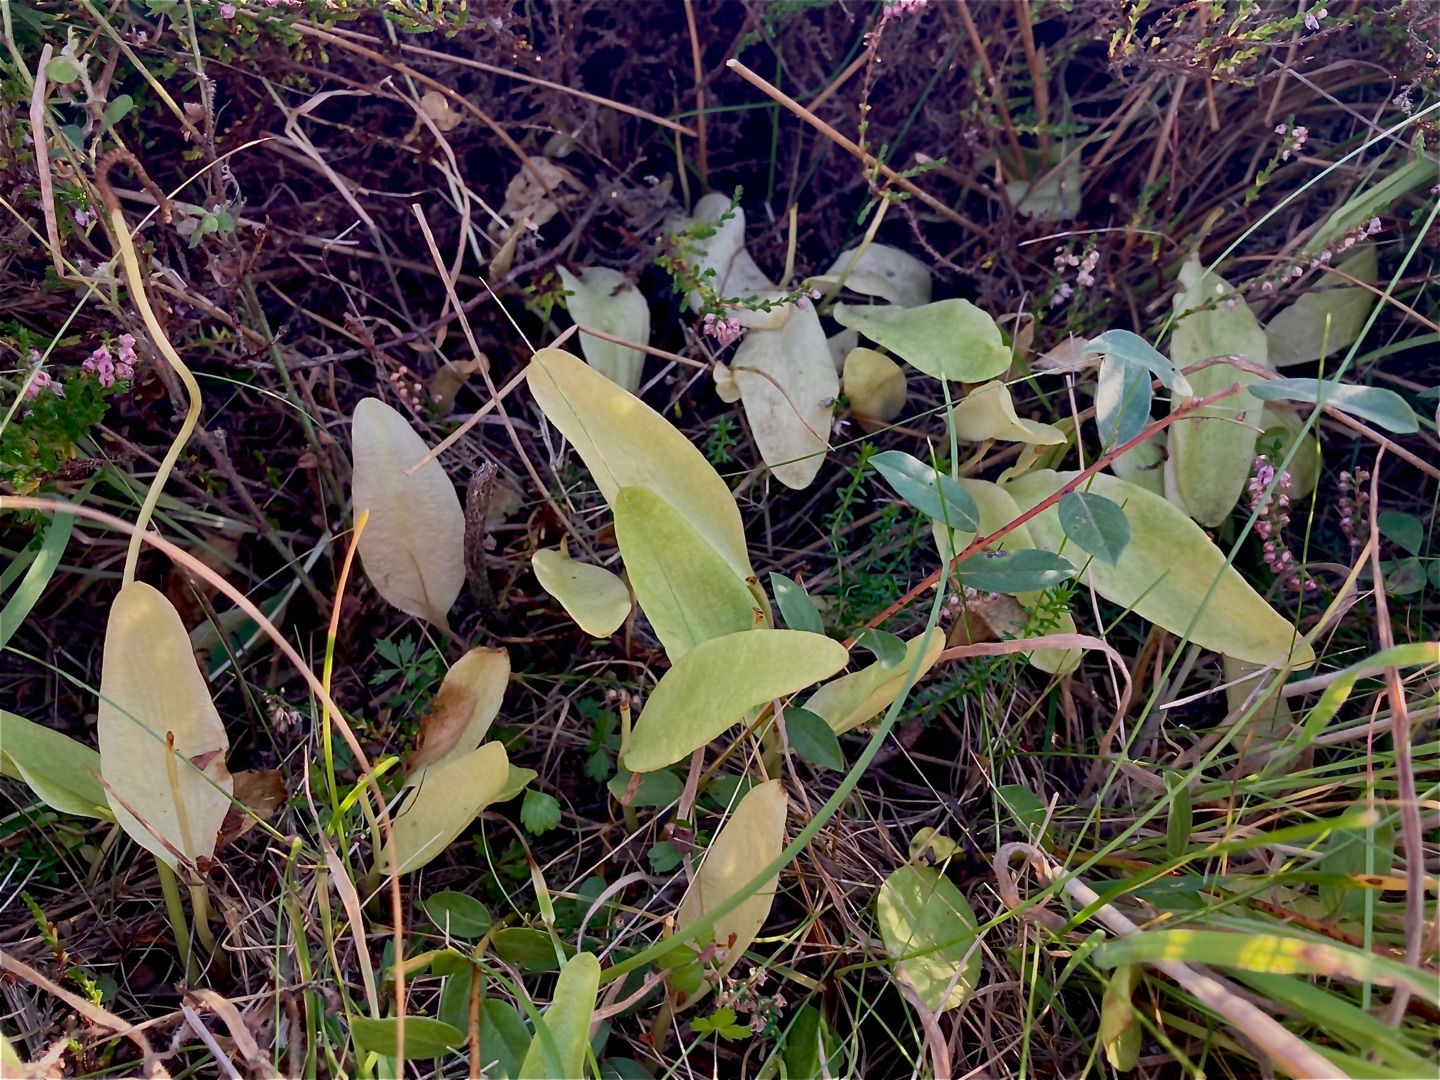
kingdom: Plantae
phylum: Tracheophyta
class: Polypodiopsida
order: Ophioglossales
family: Ophioglossaceae
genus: Ophioglossum
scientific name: Ophioglossum vulgatum
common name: Slangetunge
